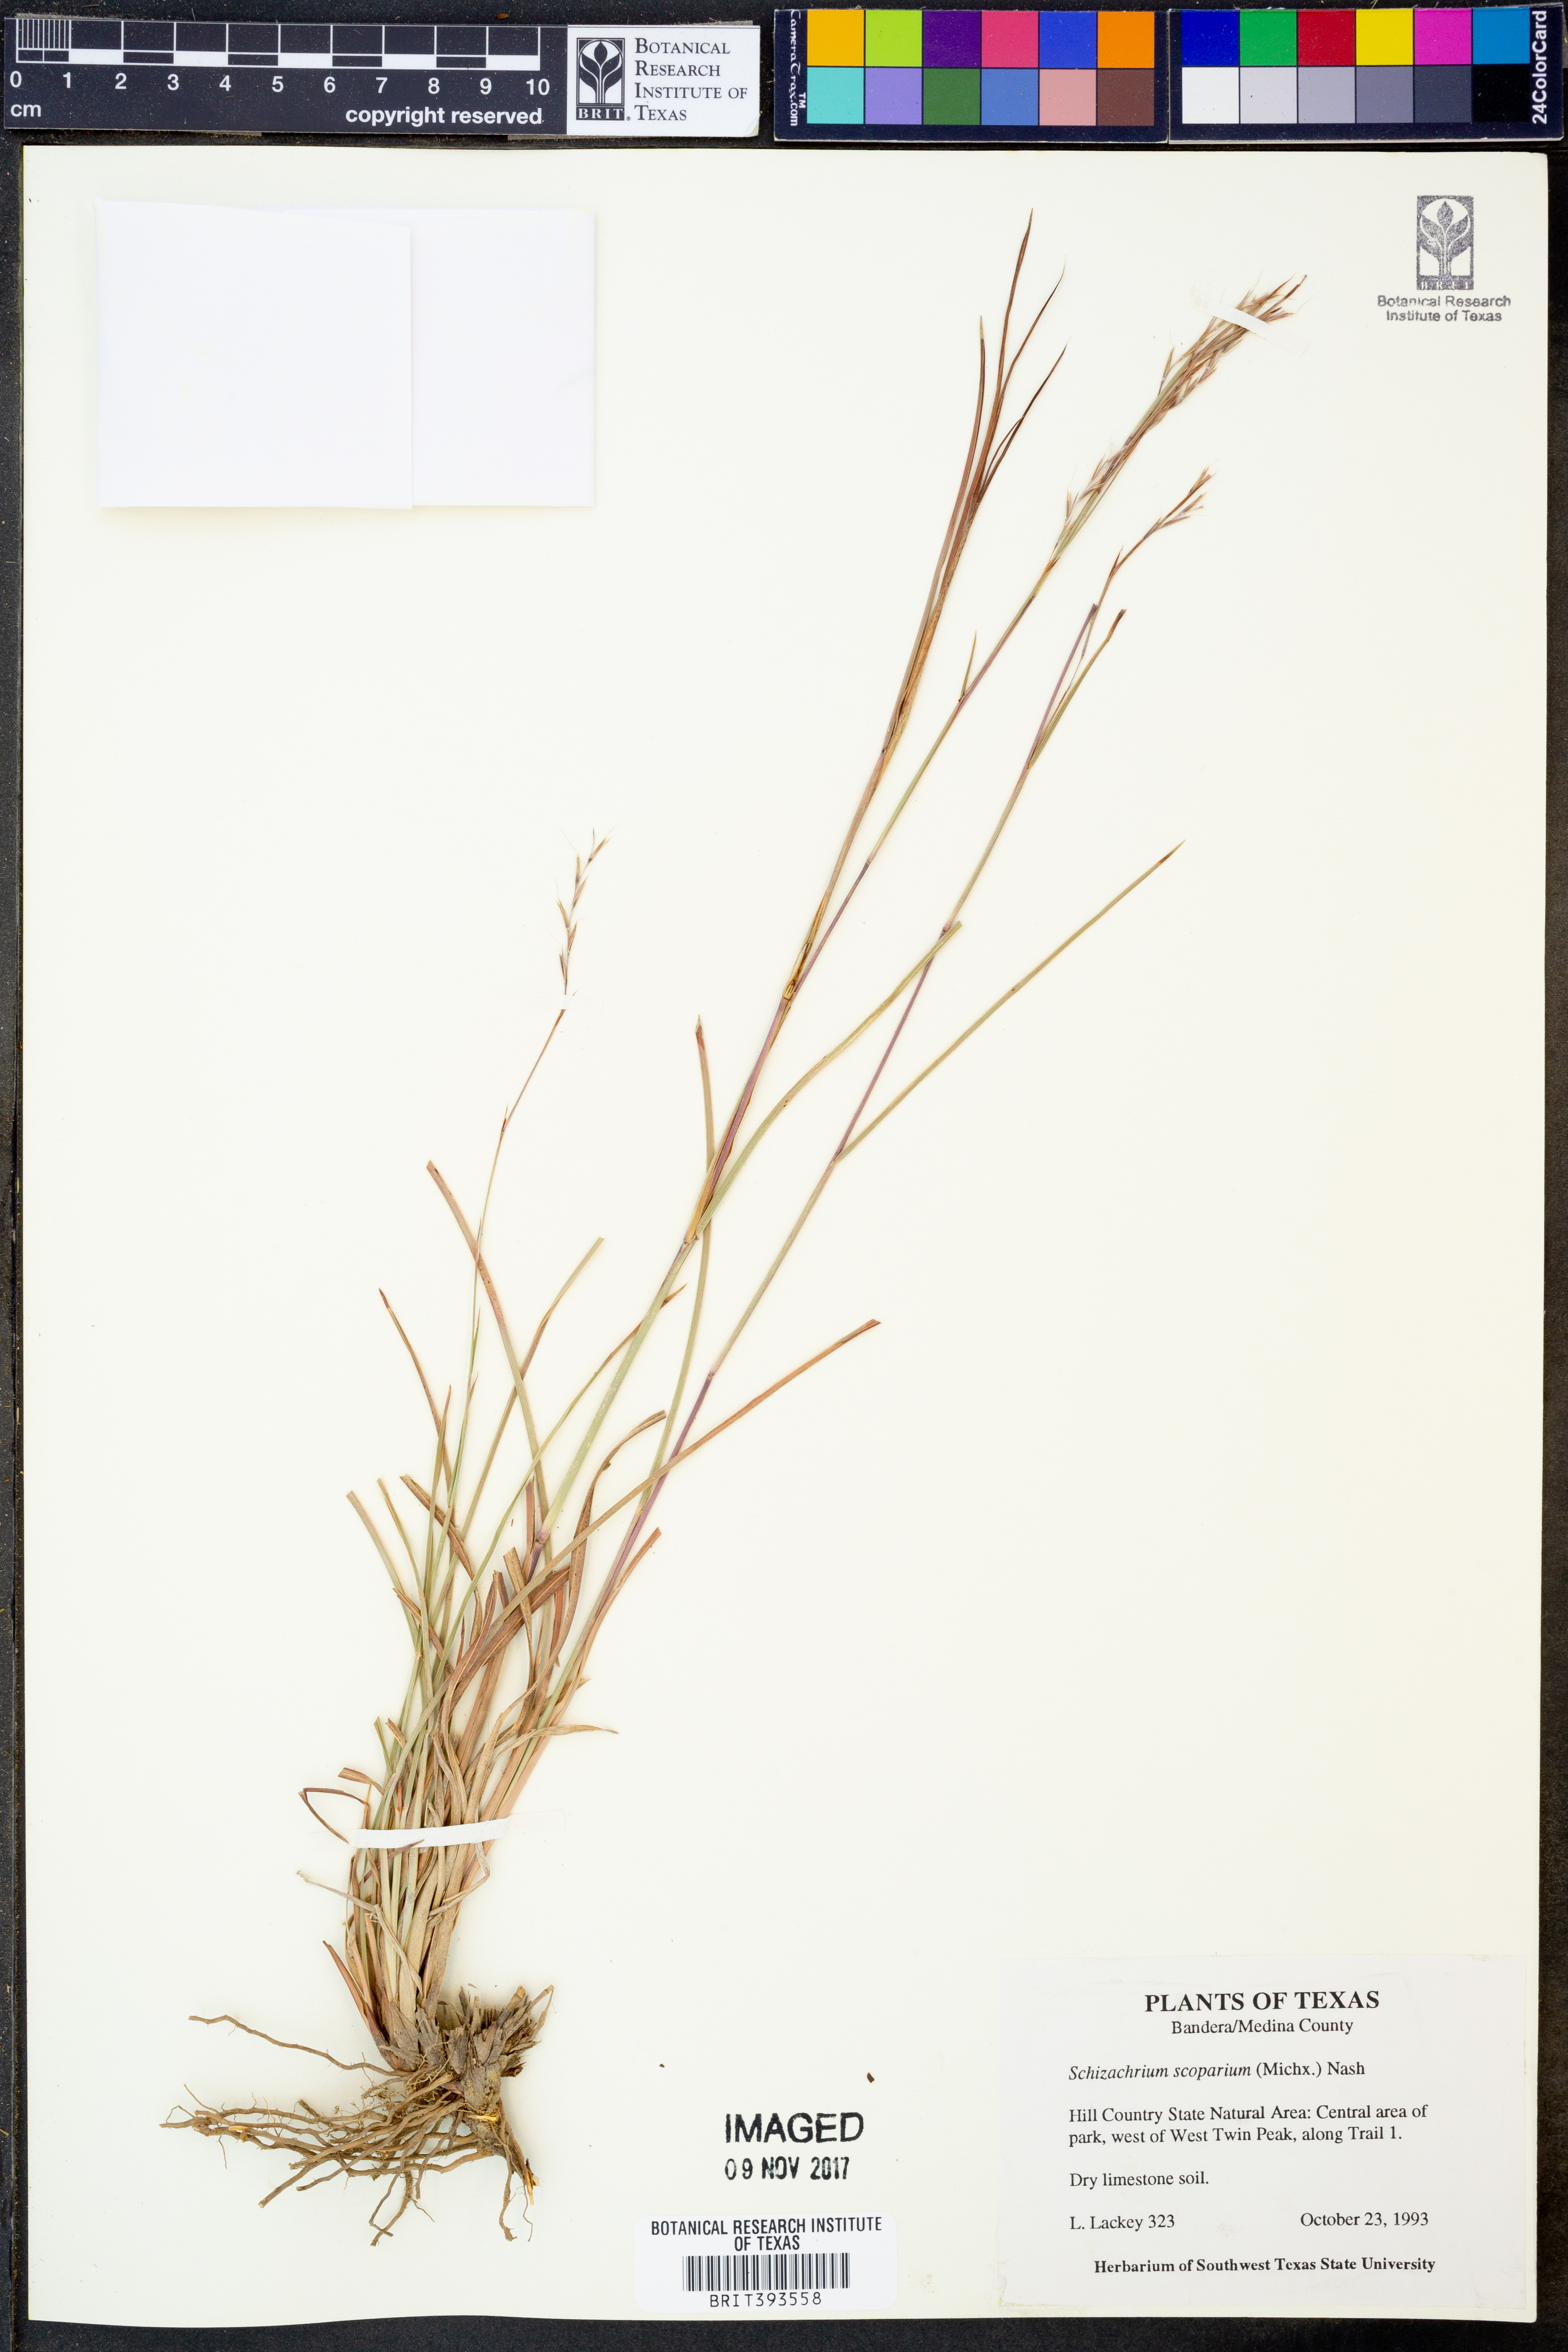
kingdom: Plantae
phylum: Tracheophyta
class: Liliopsida
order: Poales
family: Poaceae
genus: Schizachyrium
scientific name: Schizachyrium scoparium
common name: Little bluestem
